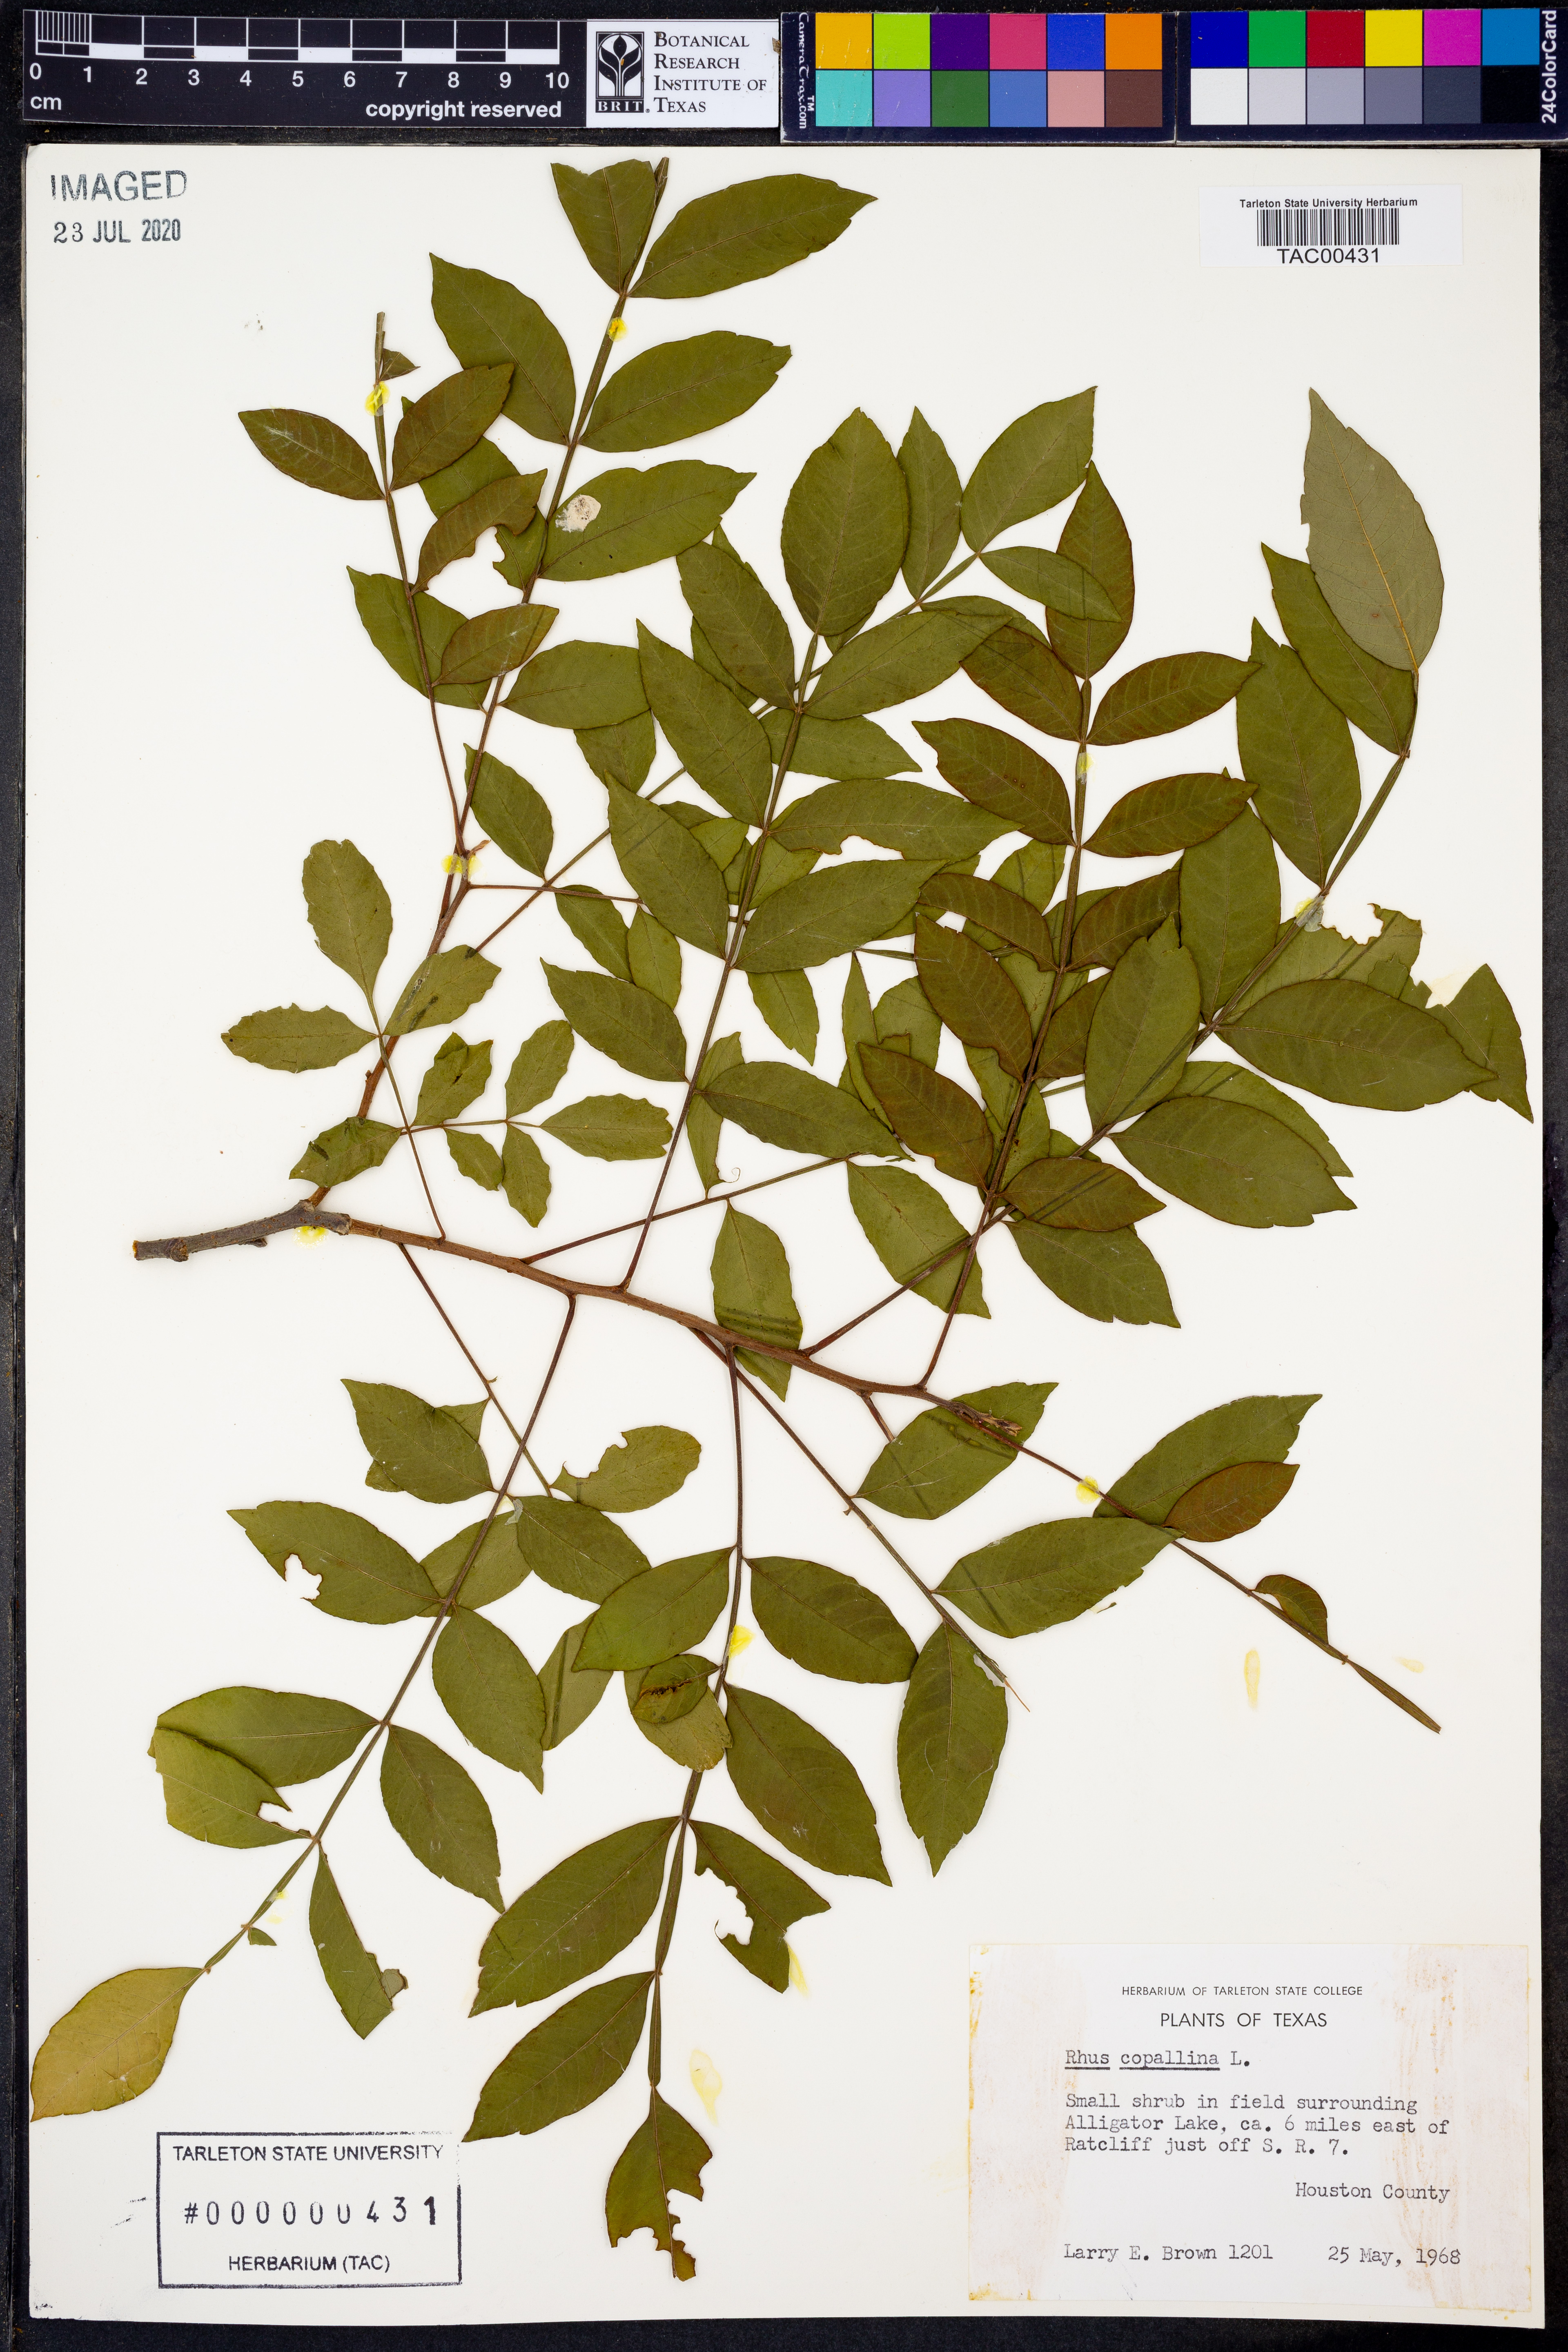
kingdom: Plantae
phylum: Tracheophyta
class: Magnoliopsida
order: Sapindales
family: Anacardiaceae
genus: Rhus
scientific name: Rhus copallina
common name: Shining sumac
